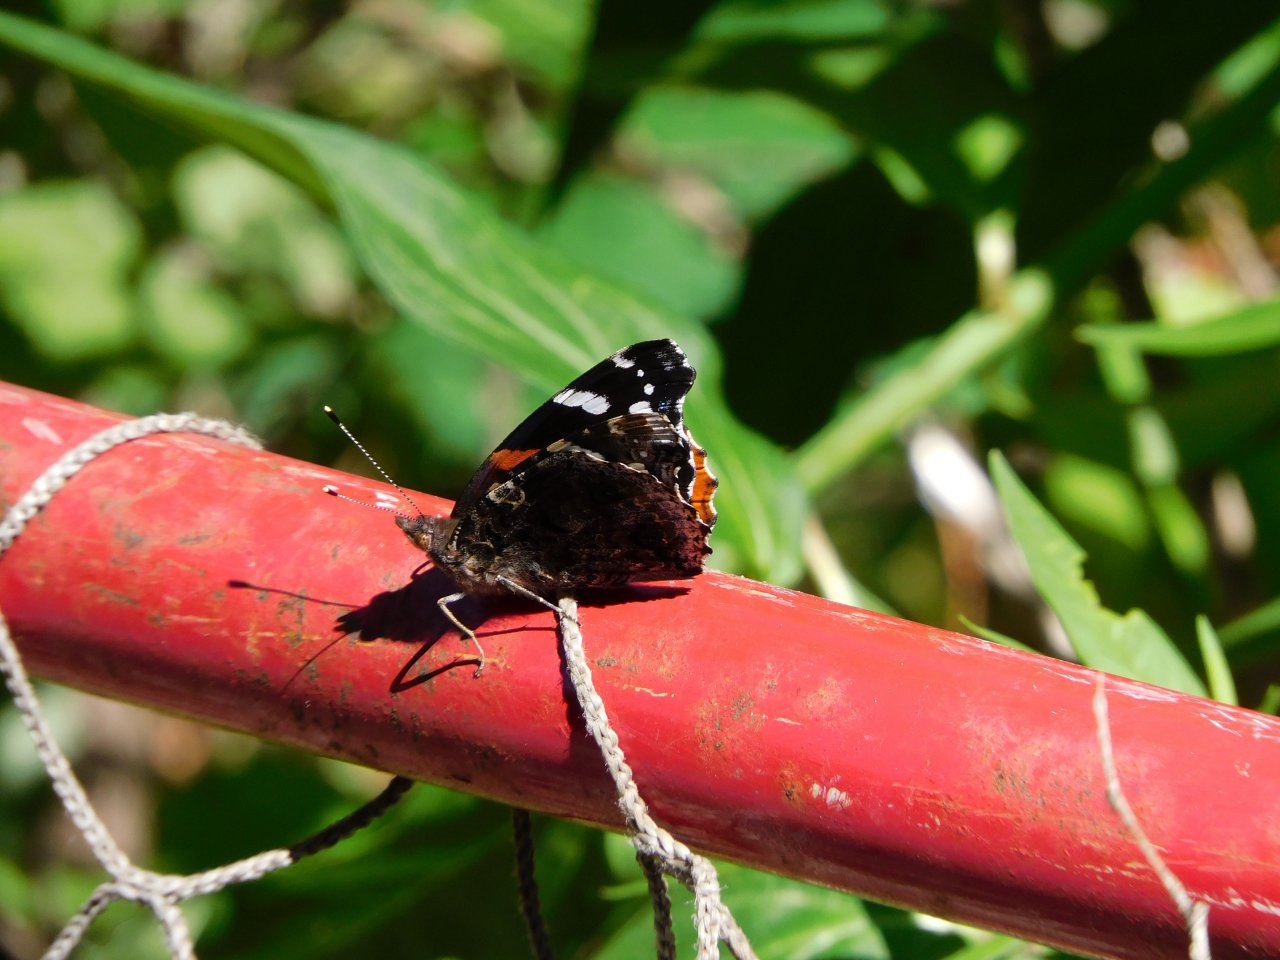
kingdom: Animalia
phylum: Arthropoda
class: Insecta
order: Lepidoptera
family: Nymphalidae
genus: Vanessa
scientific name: Vanessa atalanta
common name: Red Admiral
